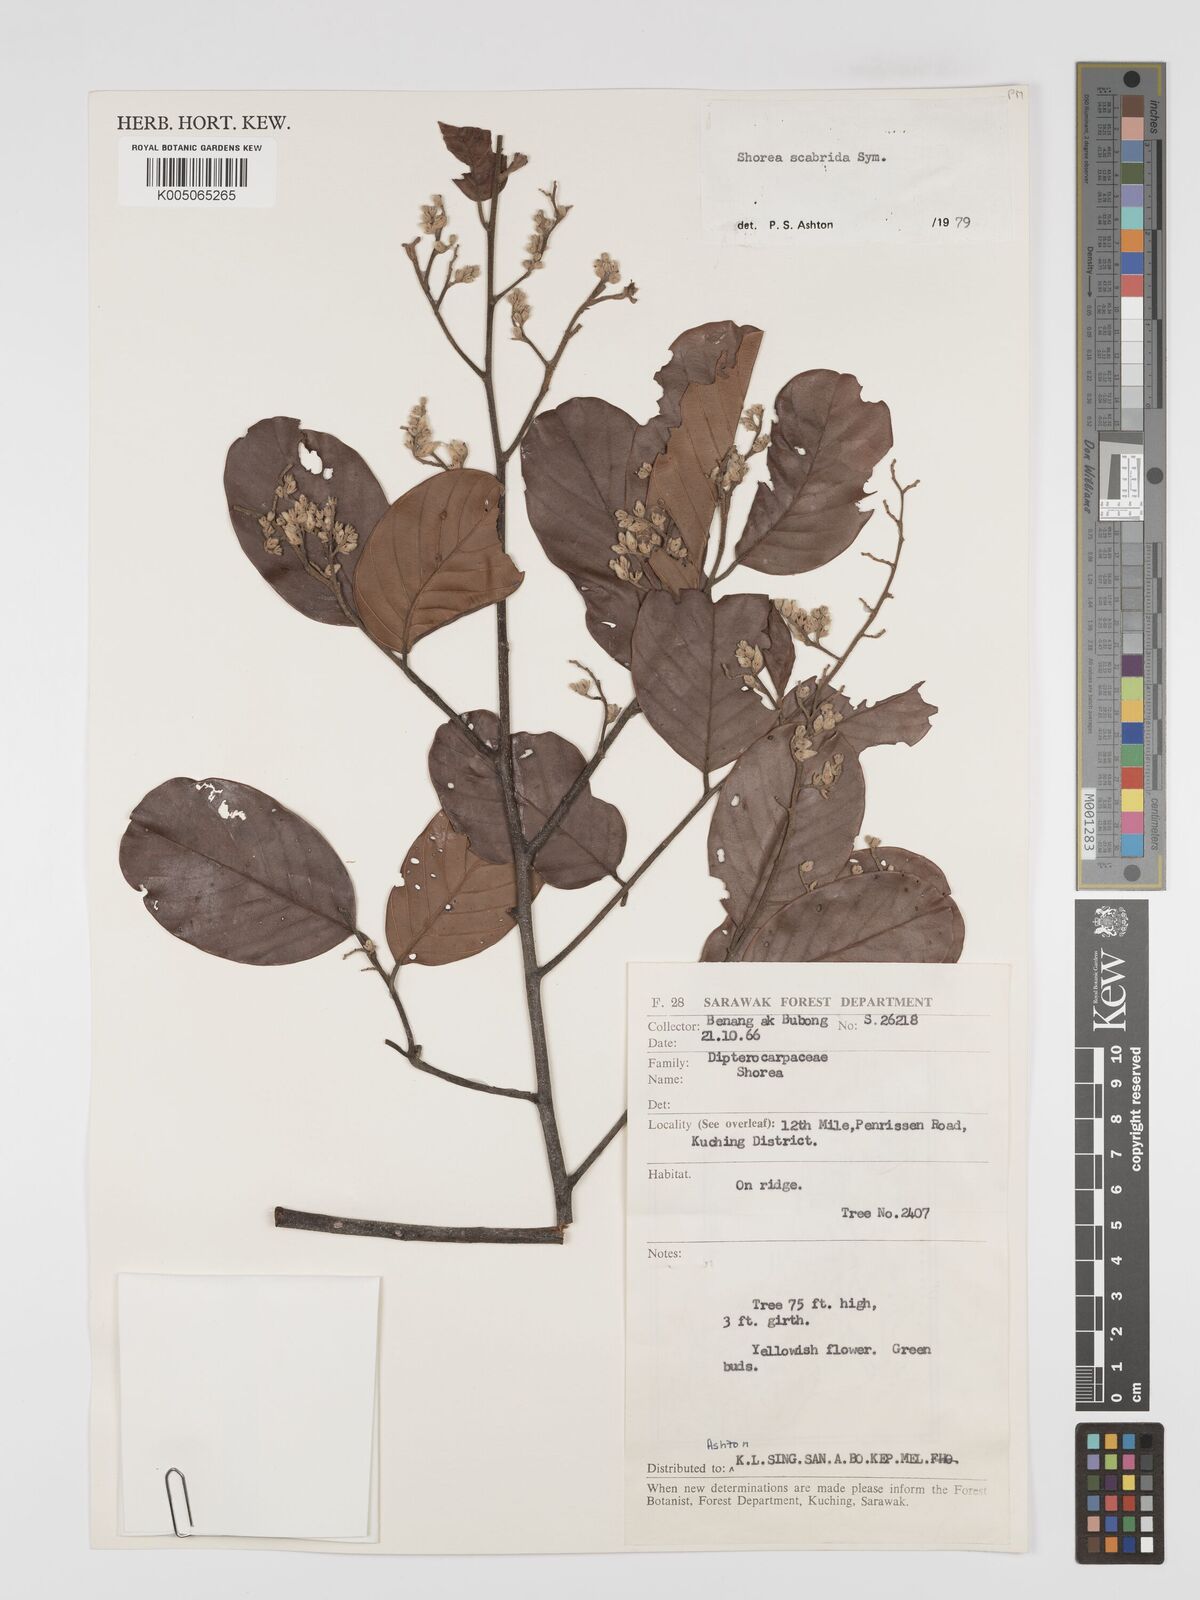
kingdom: Plantae
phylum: Tracheophyta
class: Magnoliopsida
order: Malvales
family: Dipterocarpaceae
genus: Shorea
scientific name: Shorea scabrida
